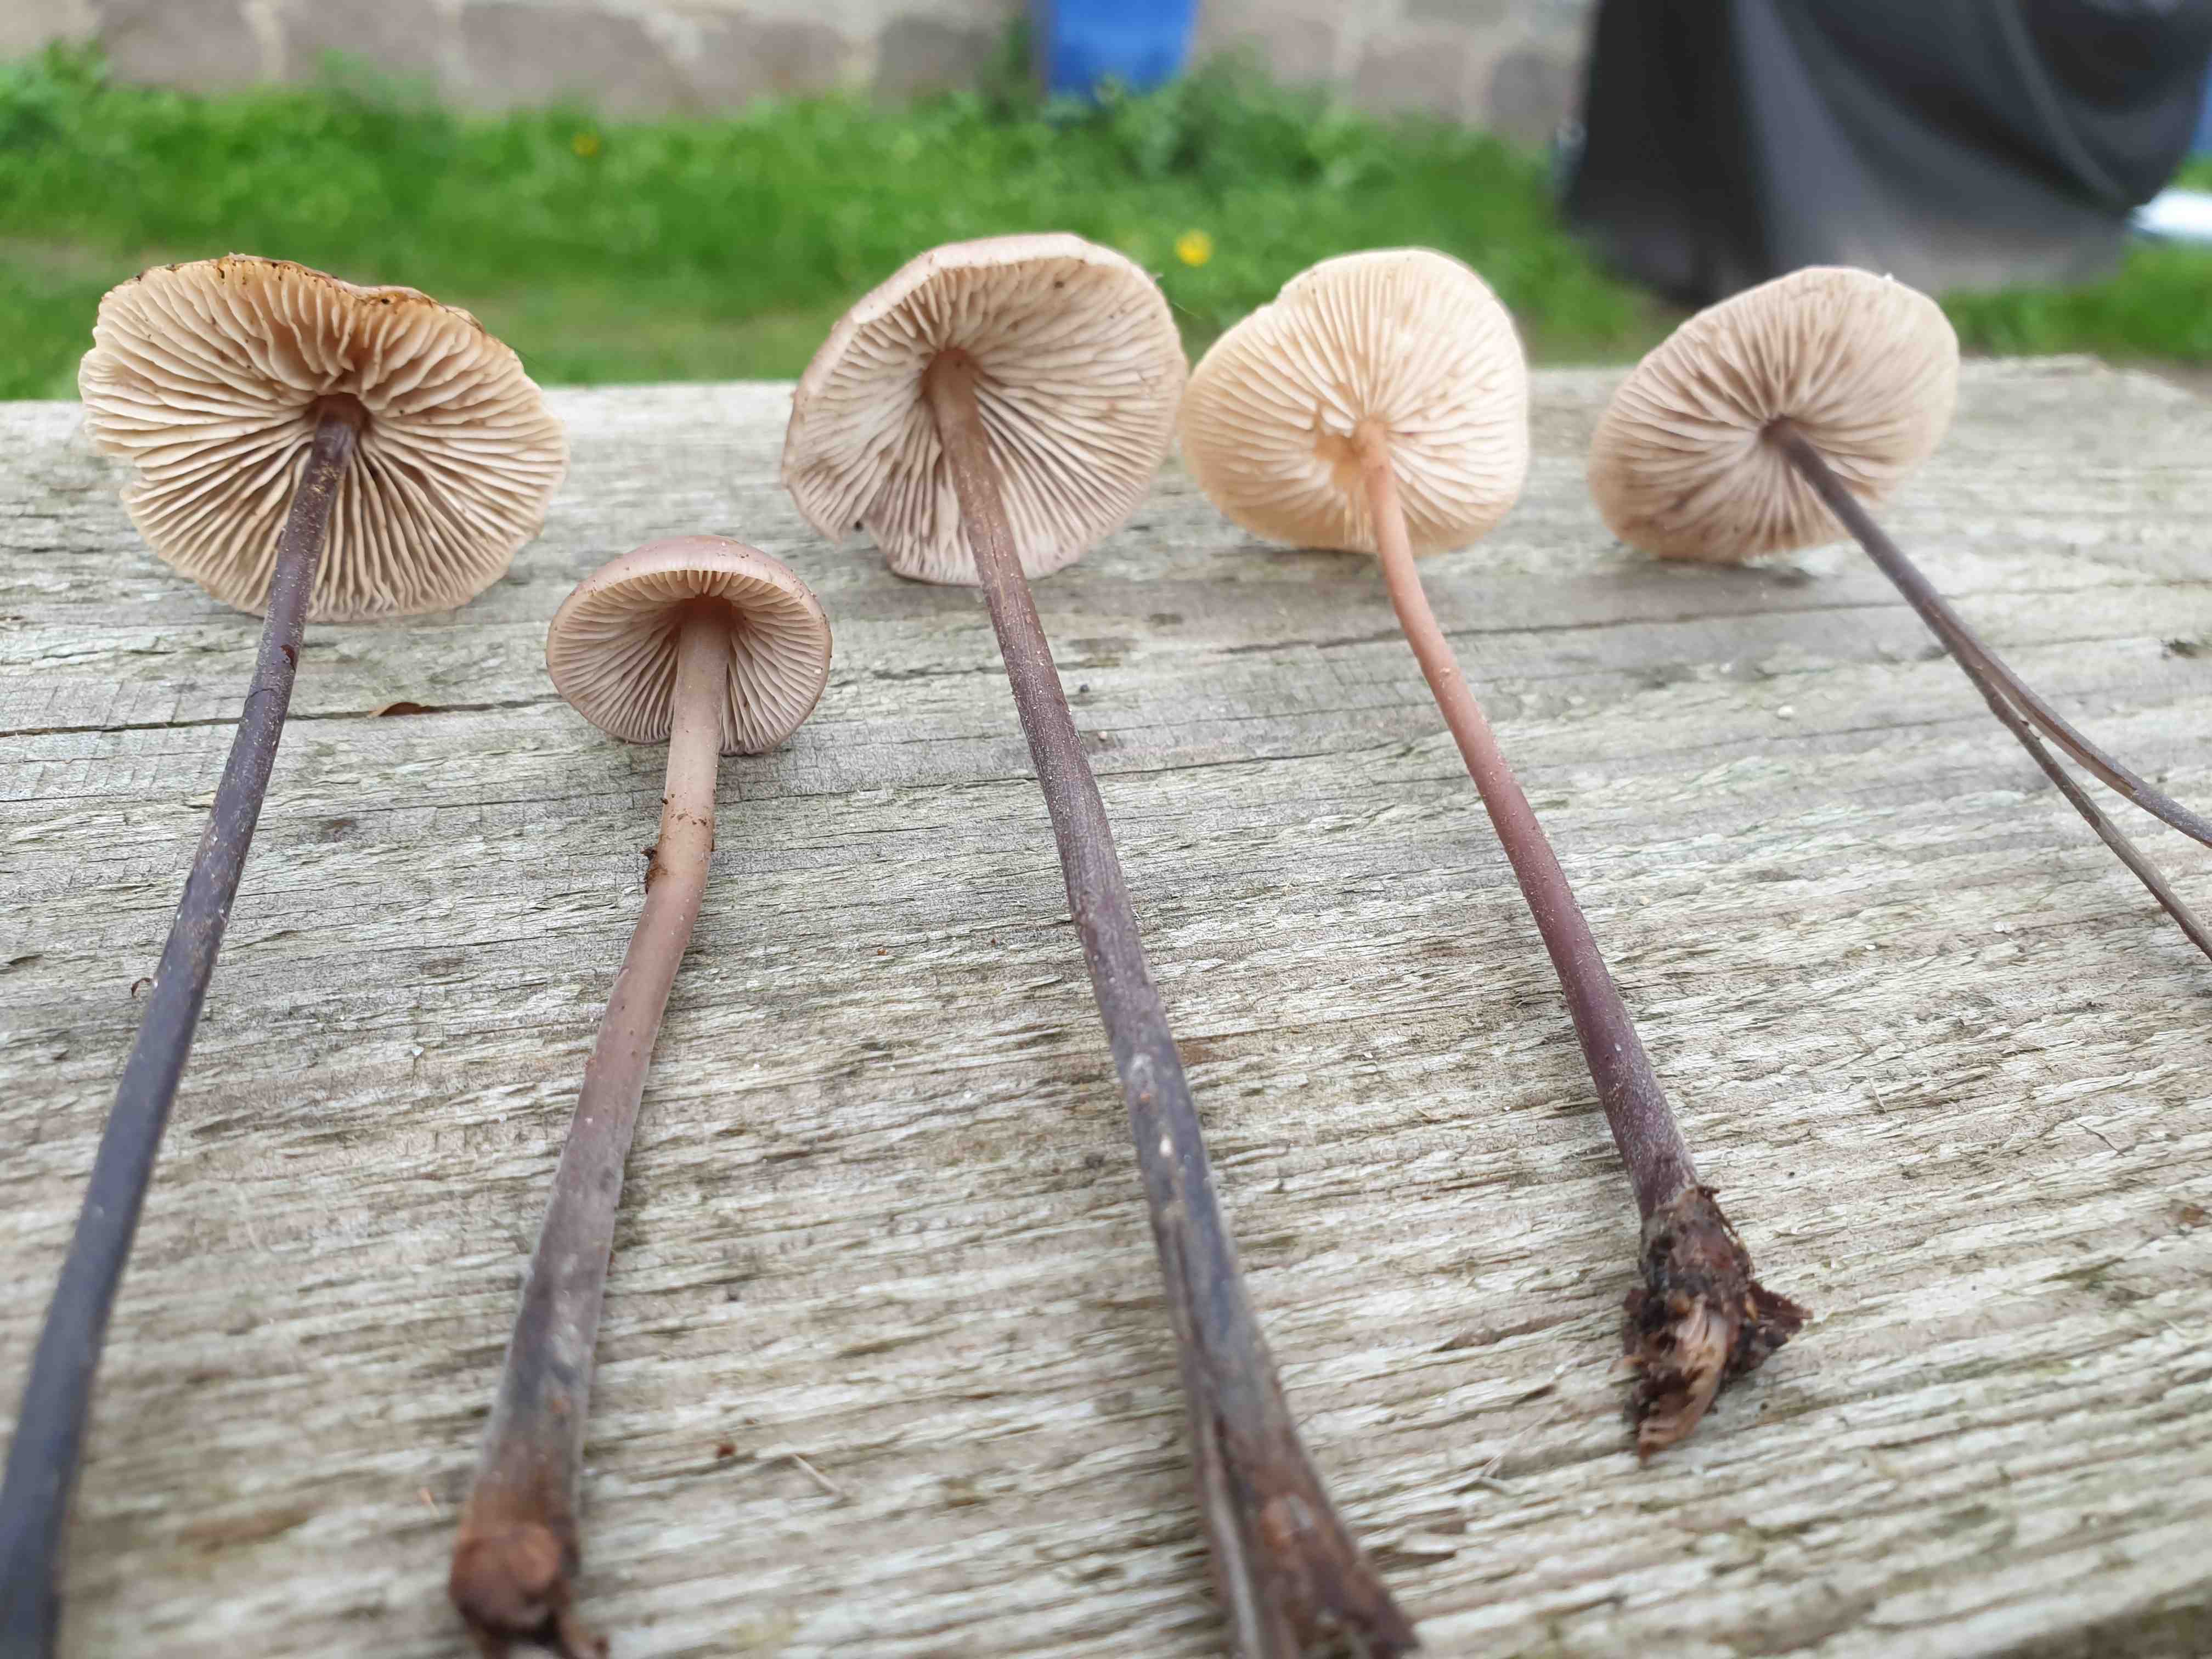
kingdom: Fungi
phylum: Basidiomycota
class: Agaricomycetes
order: Agaricales
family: Omphalotaceae
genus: Mycetinis
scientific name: Mycetinis alliaceus
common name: stor løghat
